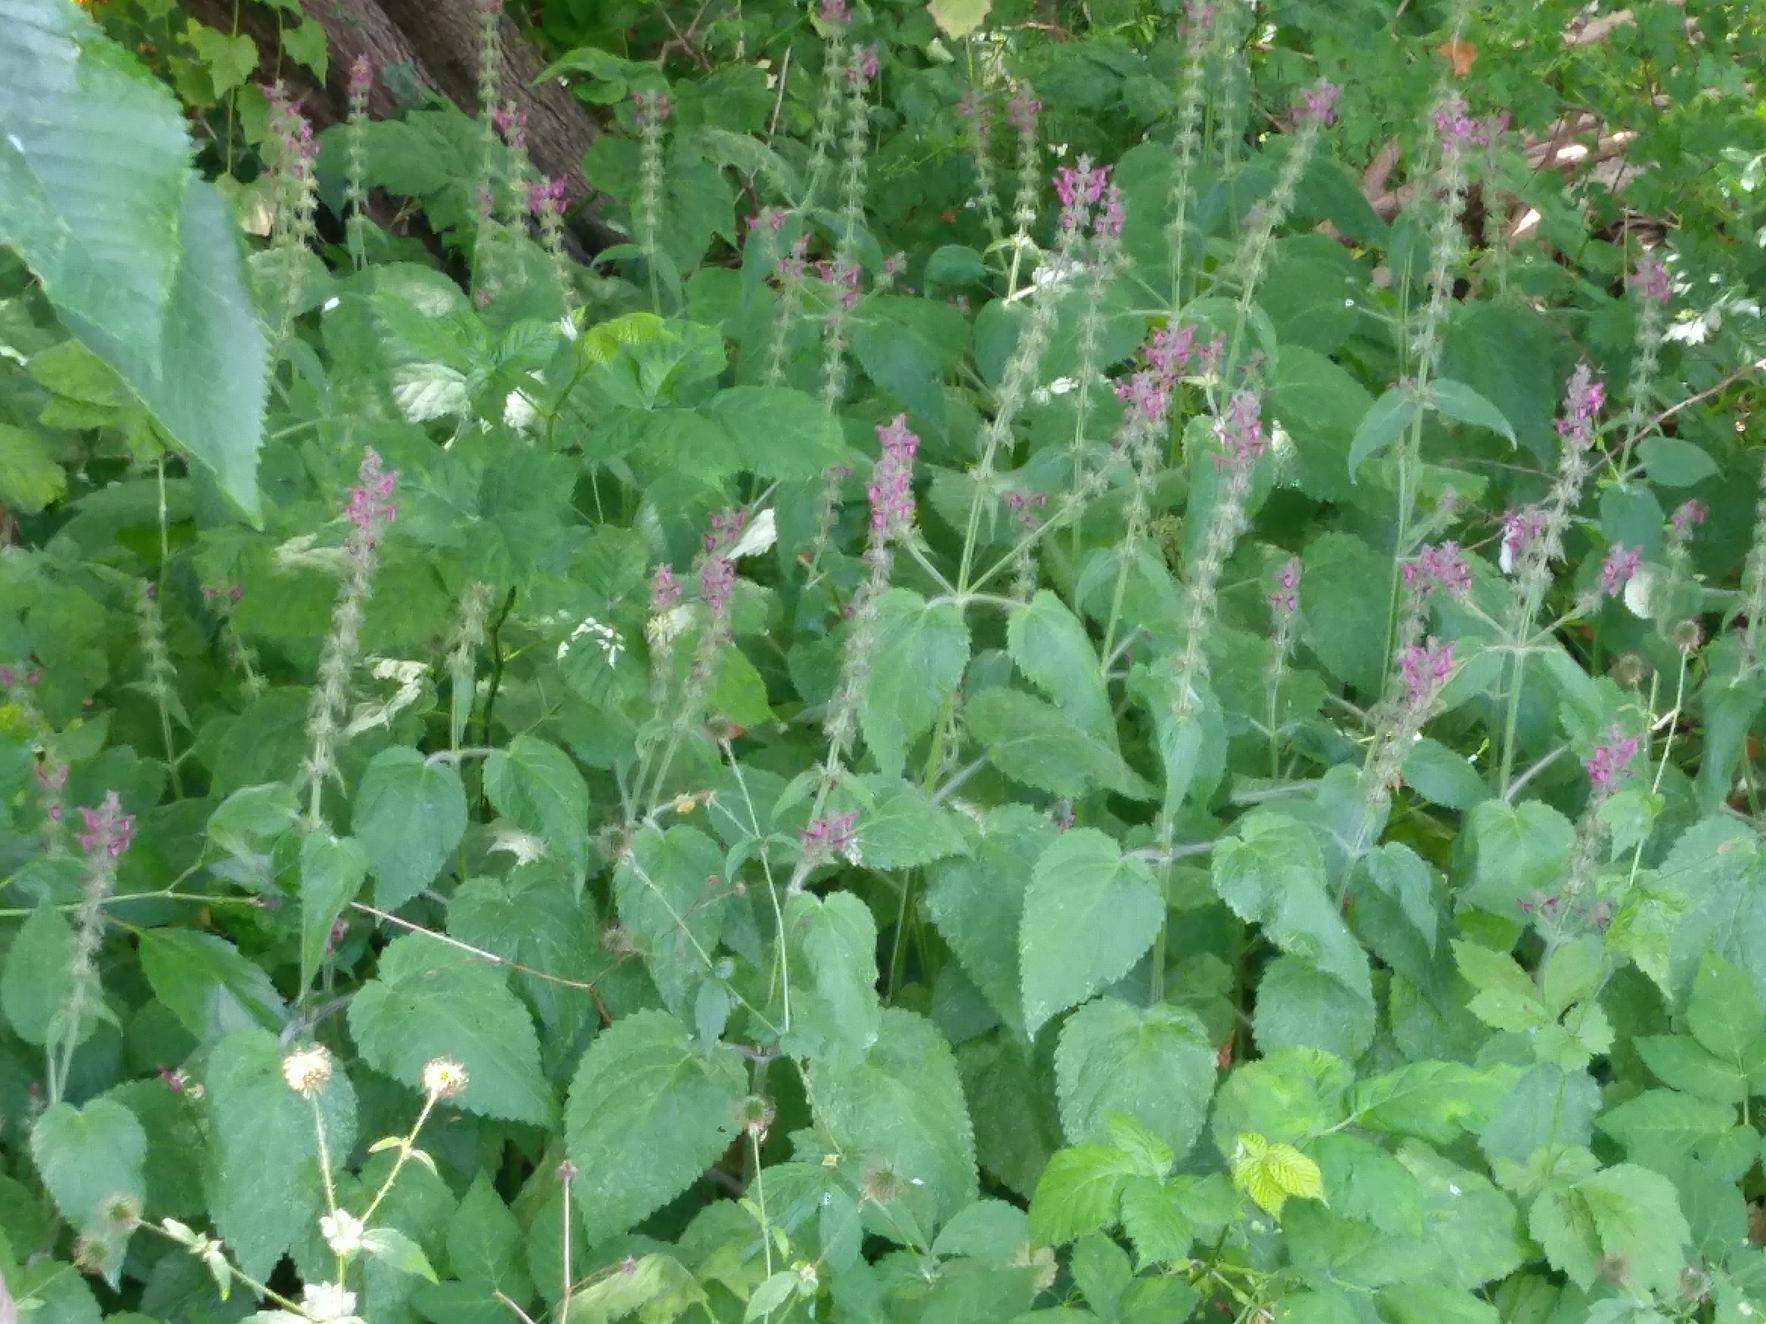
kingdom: Plantae
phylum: Tracheophyta
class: Magnoliopsida
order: Lamiales
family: Lamiaceae
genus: Stachys
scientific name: Stachys sylvatica
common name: Skov-galtetand
